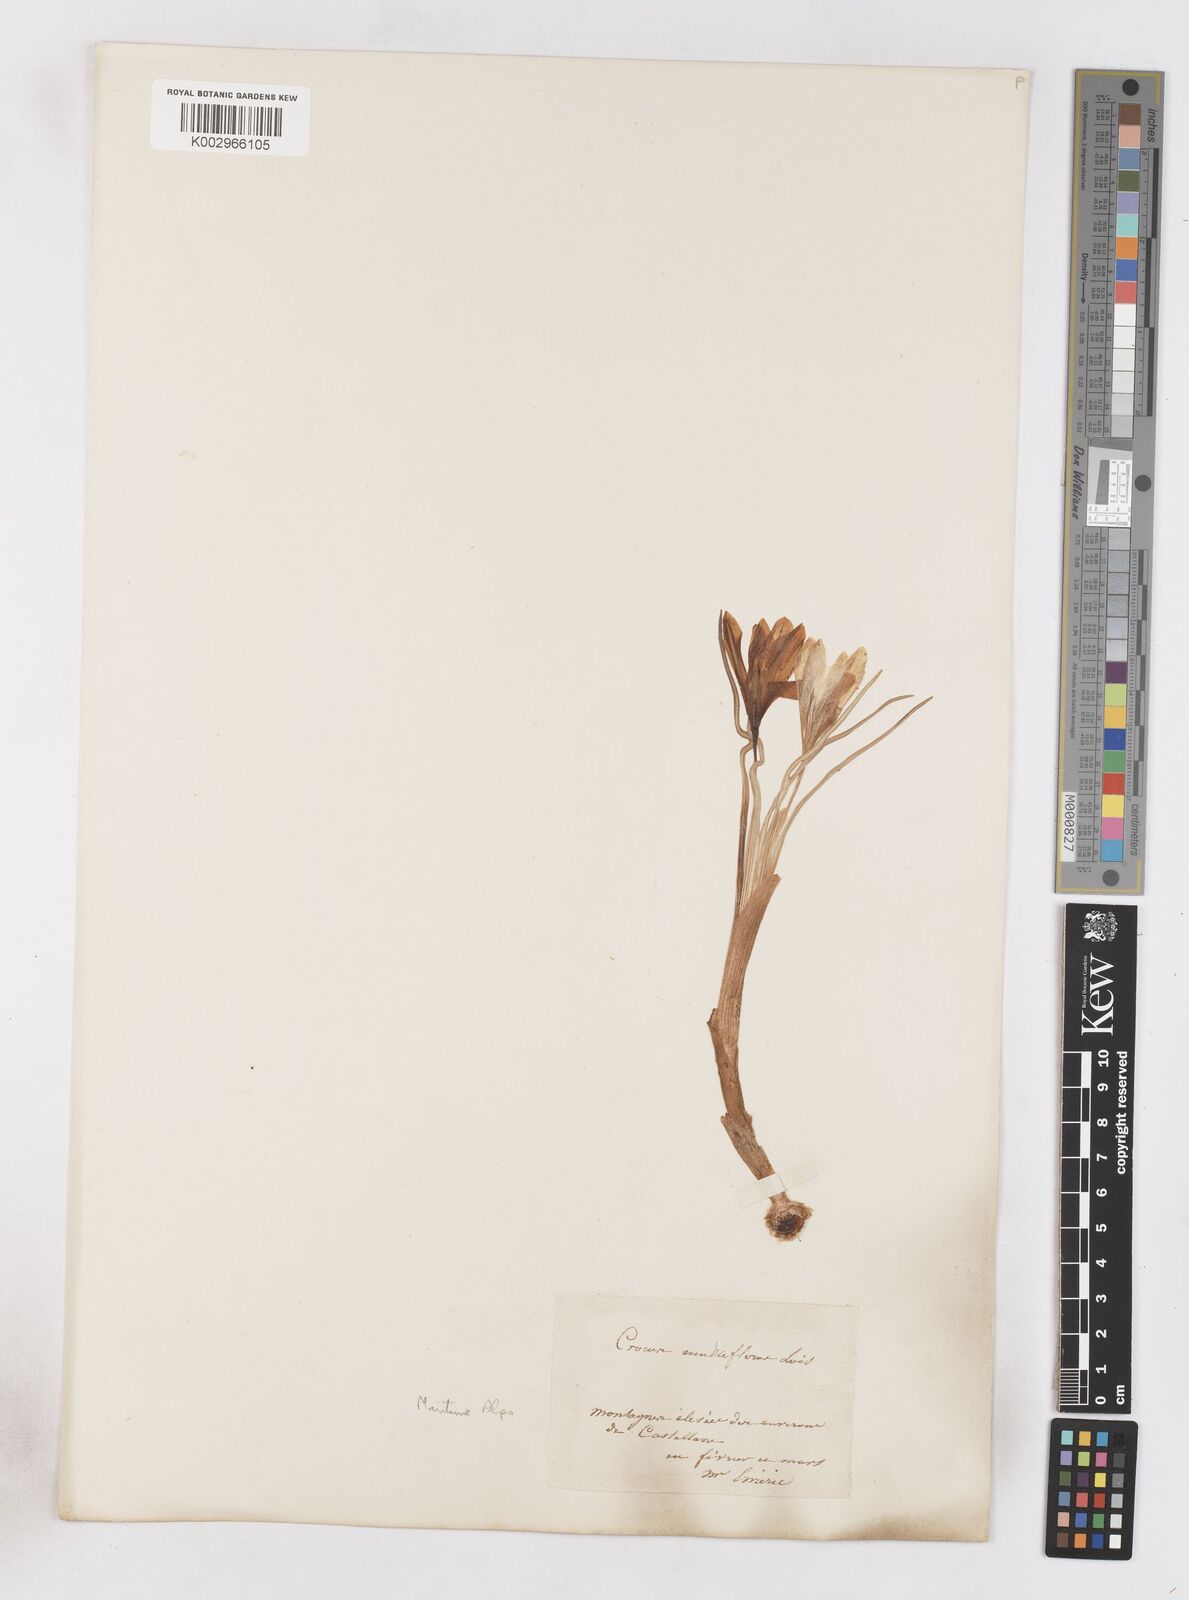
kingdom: Plantae
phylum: Tracheophyta
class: Liliopsida
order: Asparagales
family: Iridaceae
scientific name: Iridaceae
